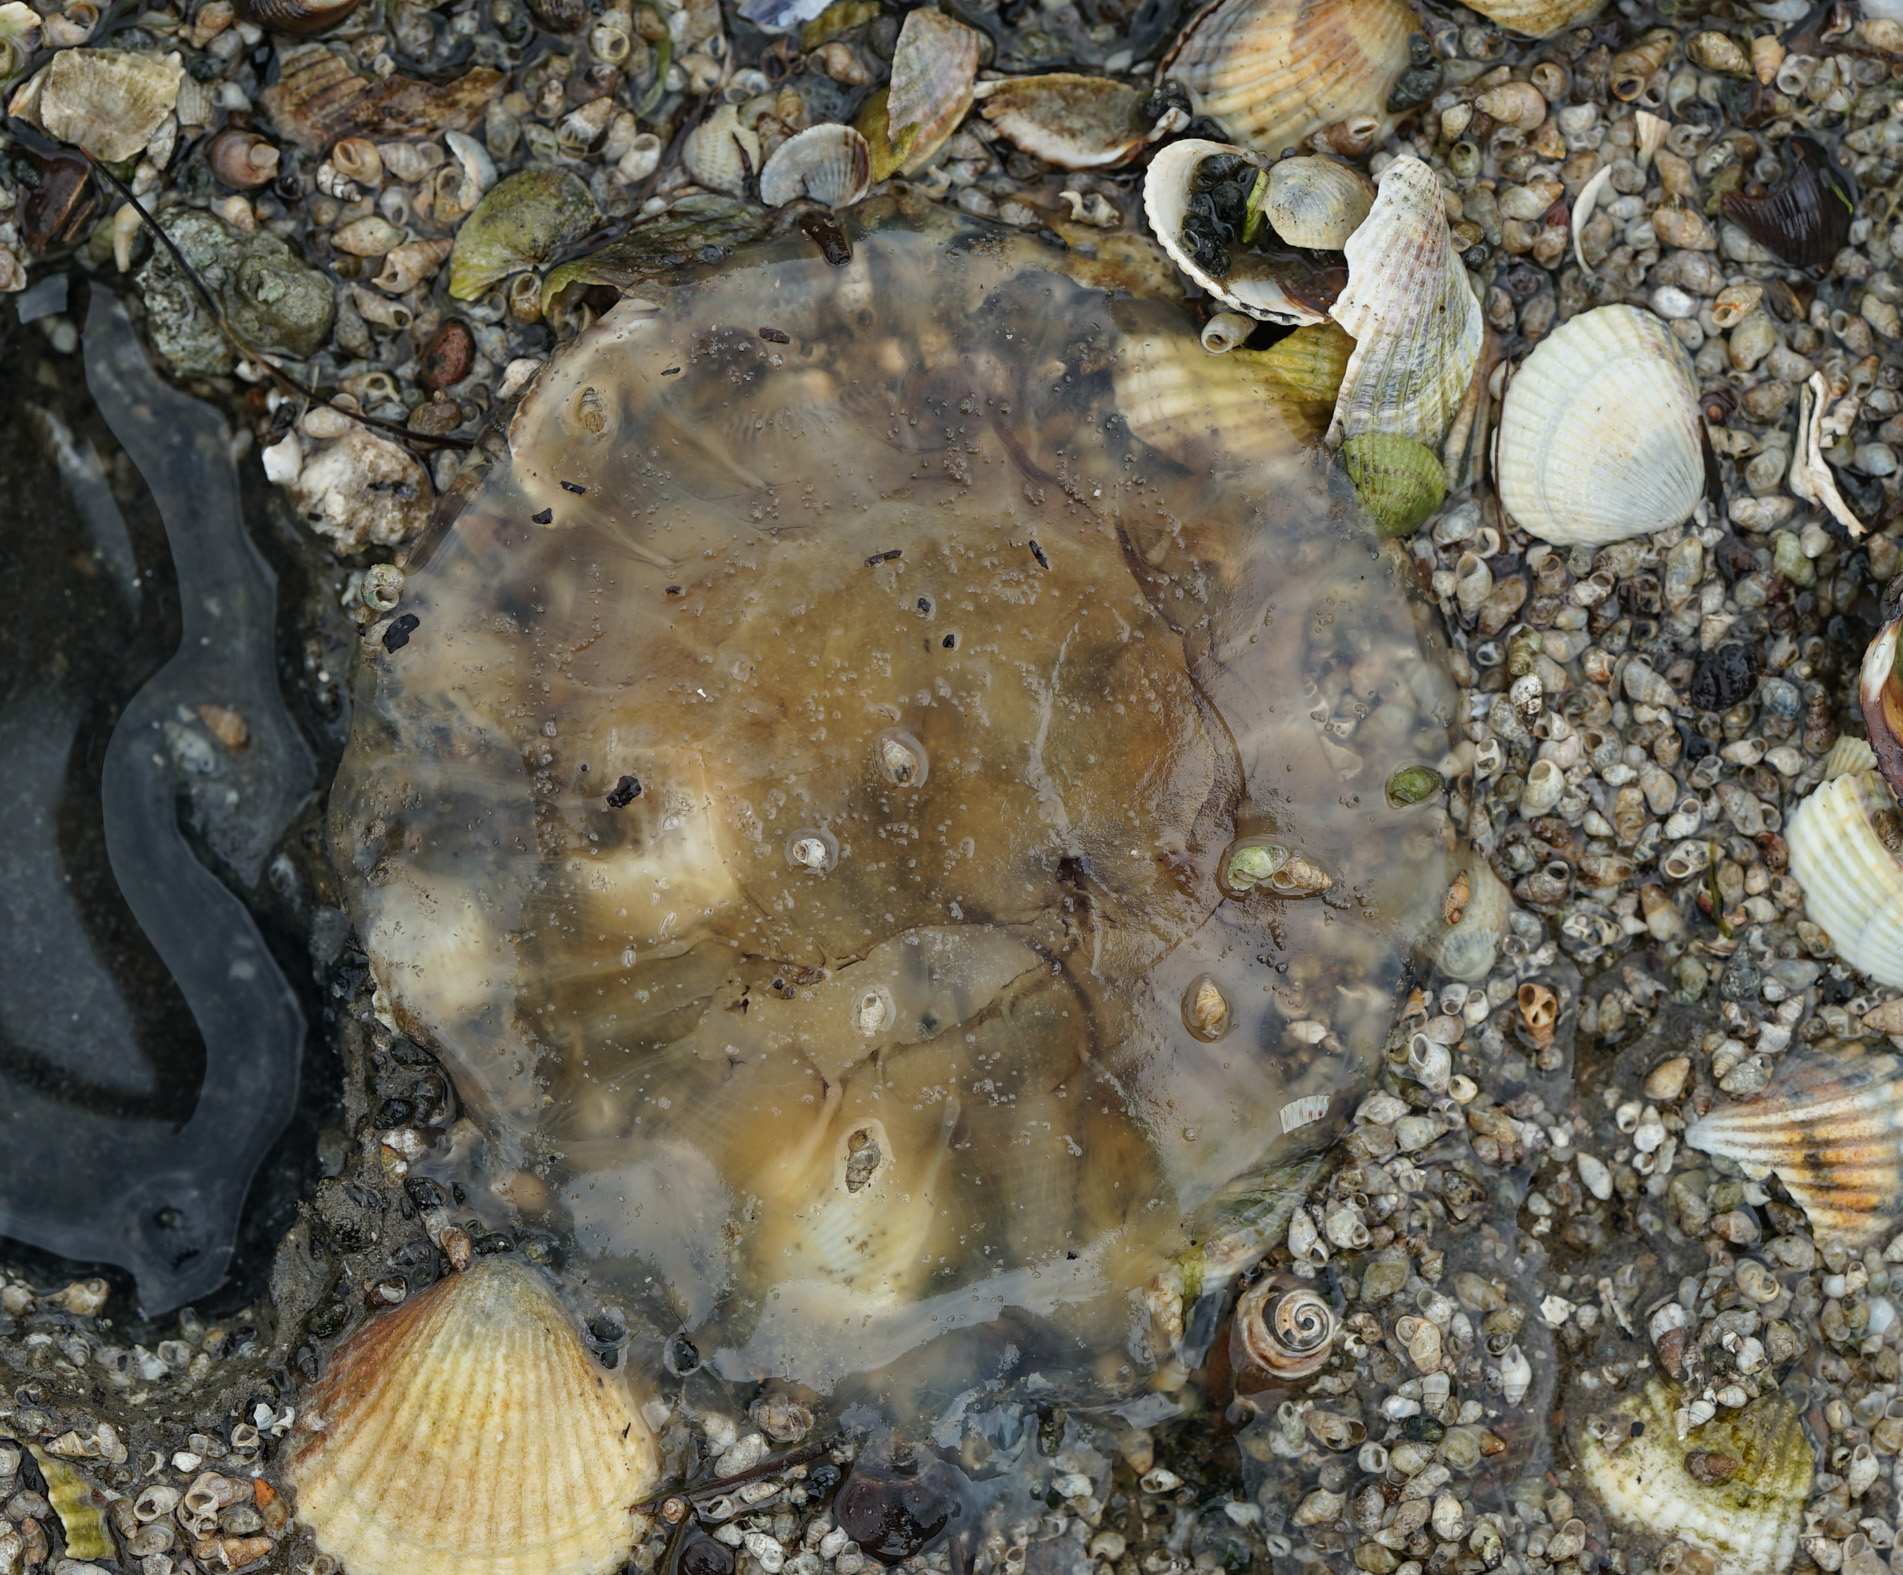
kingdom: Animalia
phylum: Cnidaria
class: Scyphozoa
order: Semaeostomeae
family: Cyaneidae
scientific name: Cyaneidae
